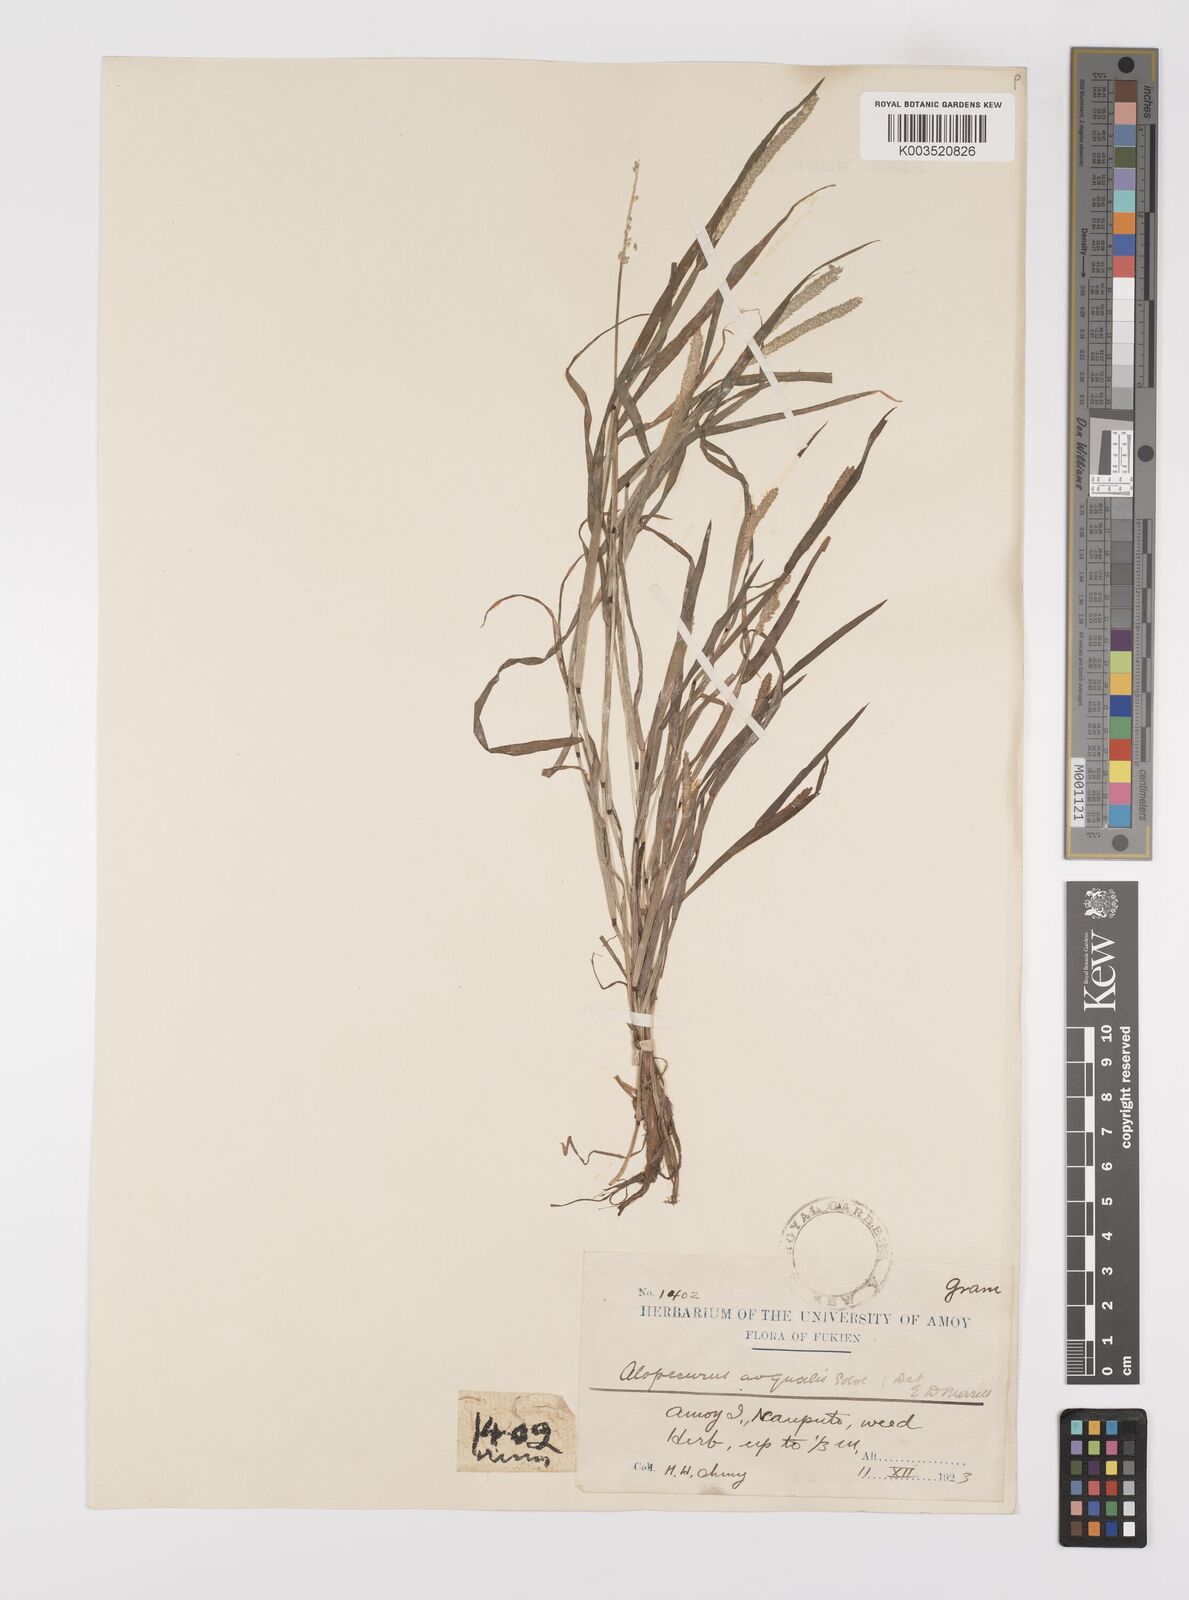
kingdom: Plantae
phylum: Tracheophyta
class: Liliopsida
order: Poales
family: Poaceae
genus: Alopecurus
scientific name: Alopecurus aequalis
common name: Orange foxtail
